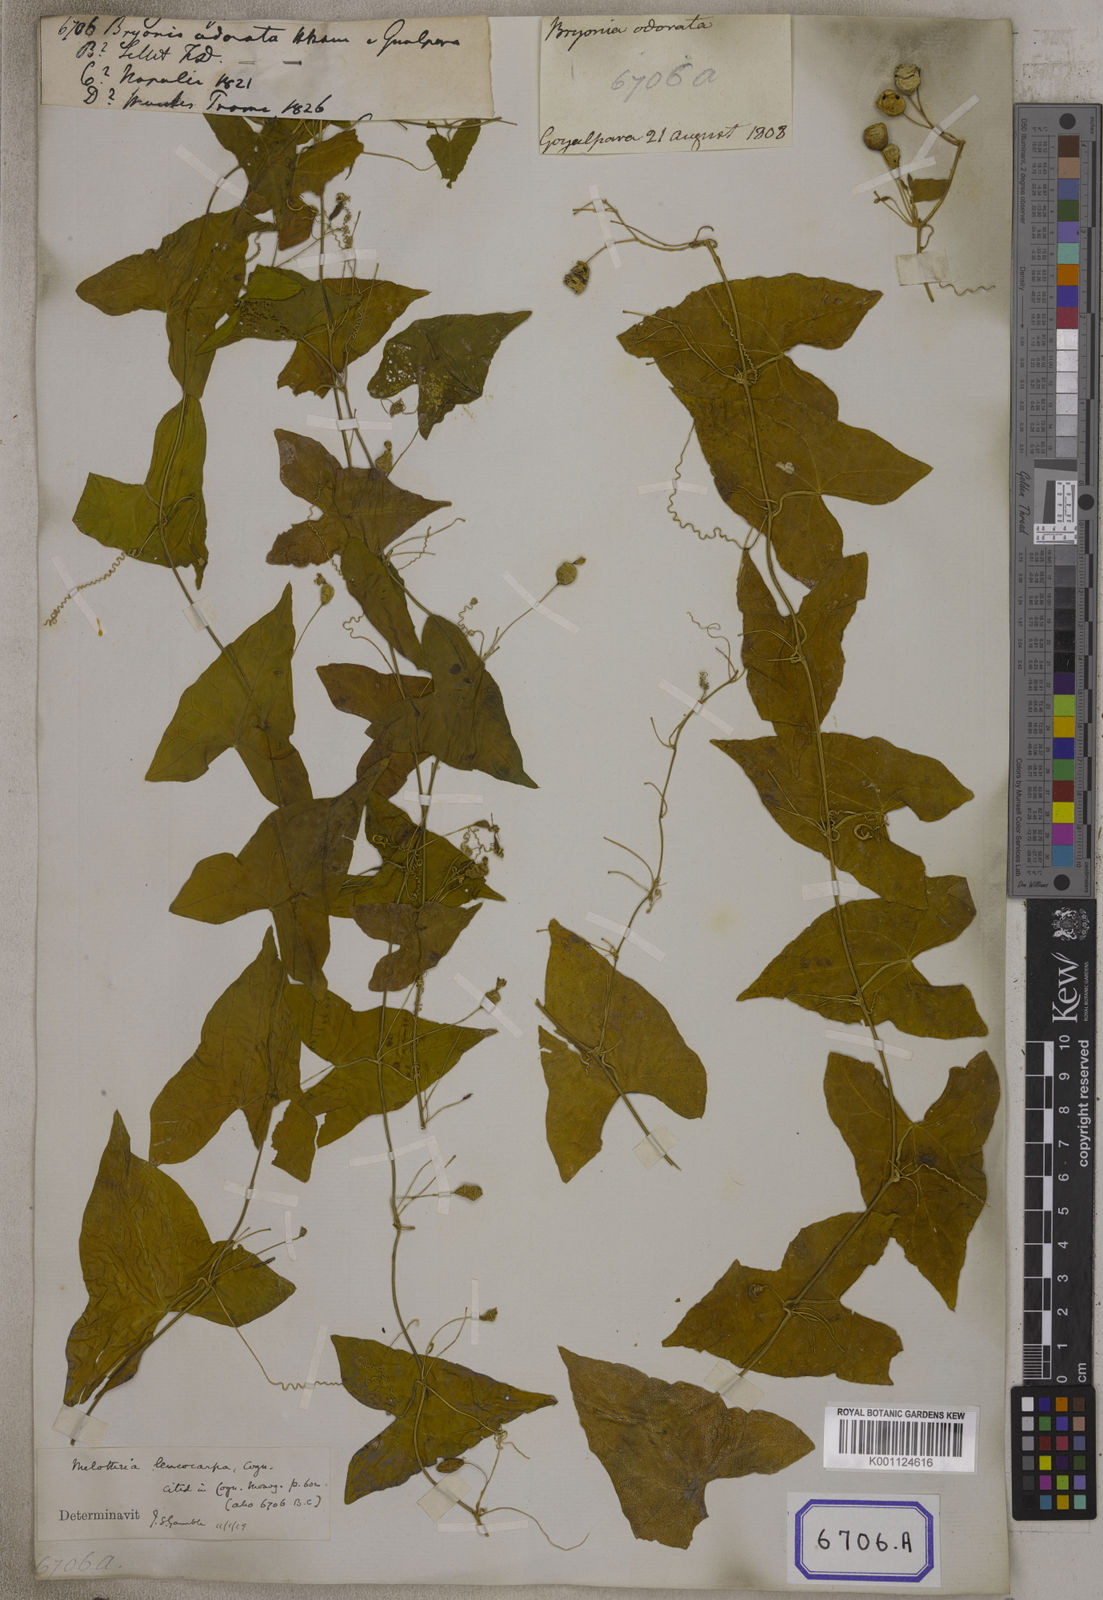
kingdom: Plantae
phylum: Tracheophyta
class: Magnoliopsida
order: Cucurbitales
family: Cucurbitaceae
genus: Zehneria
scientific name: Zehneria odorata
